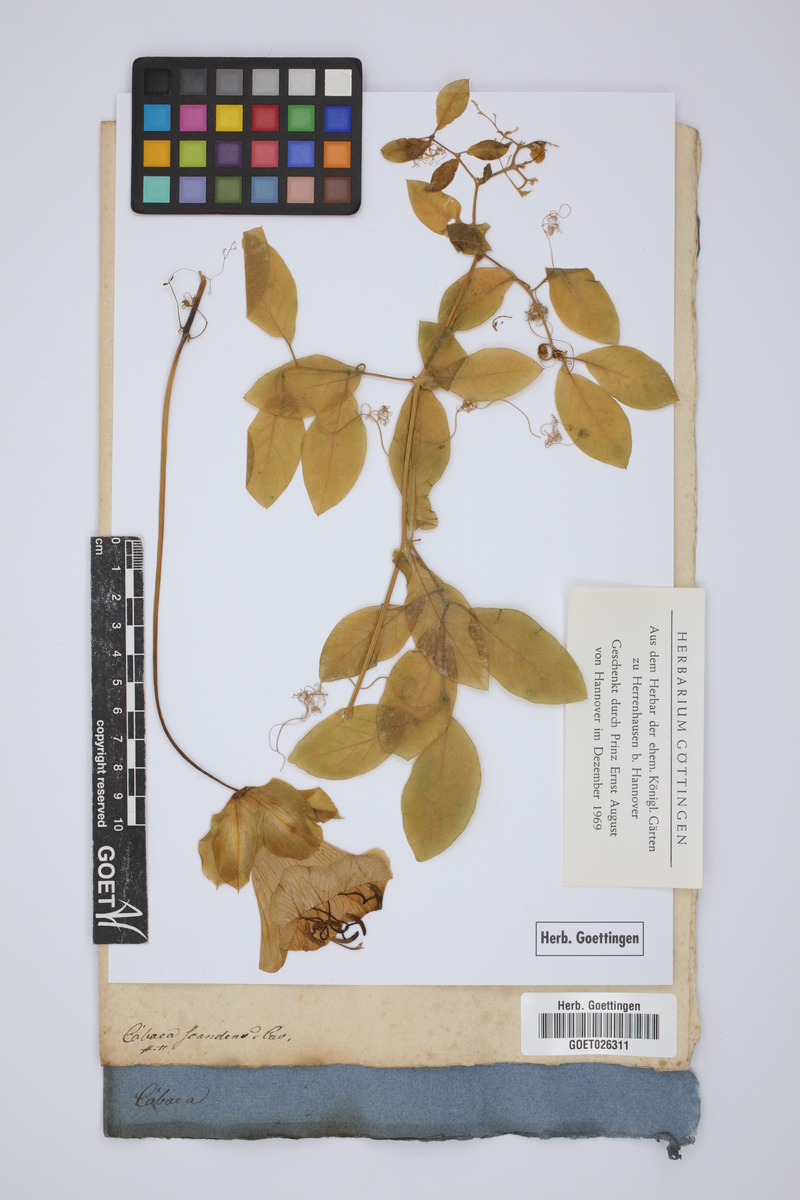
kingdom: Plantae
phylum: Tracheophyta
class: Magnoliopsida
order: Ericales
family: Polemoniaceae
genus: Cobaea
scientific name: Cobaea scandens
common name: Cup-and-saucer-vine
